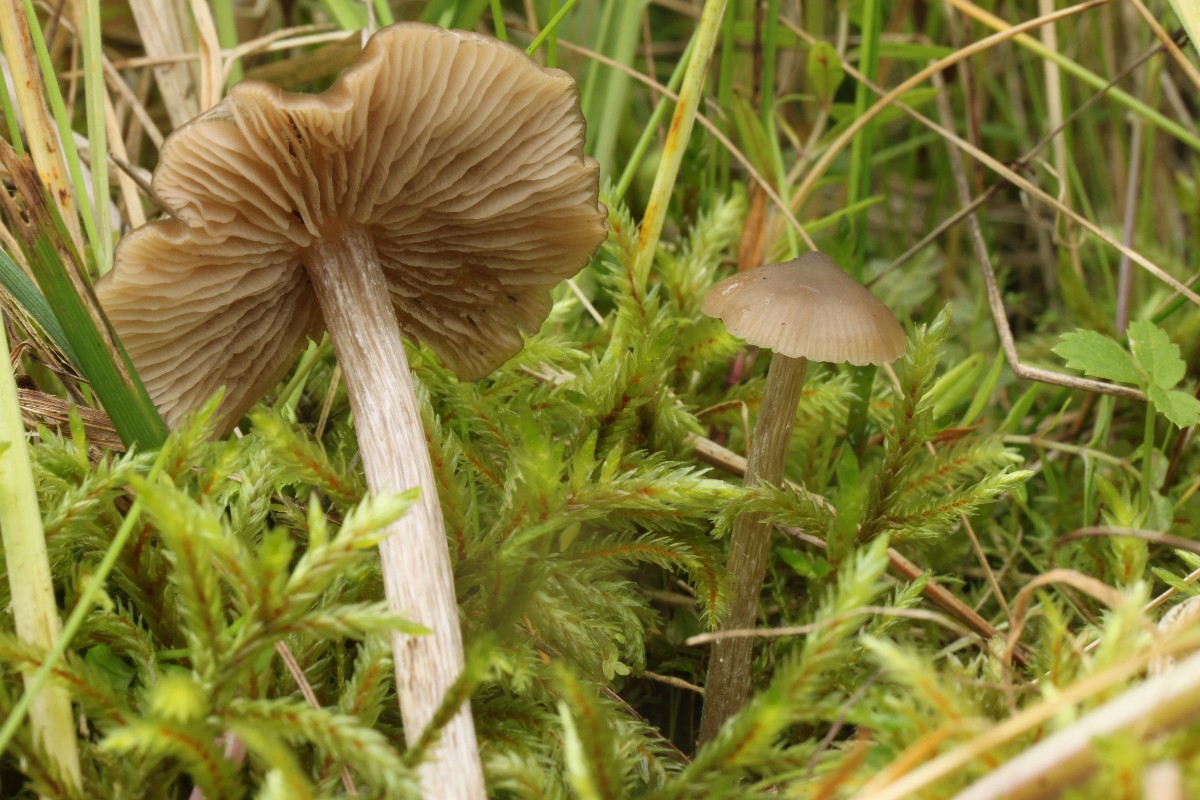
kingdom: Fungi
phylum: Basidiomycota
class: Agaricomycetes
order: Agaricales
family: Entolomataceae
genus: Entoloma
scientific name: Entoloma sericeum
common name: silkeglinsende rødblad
